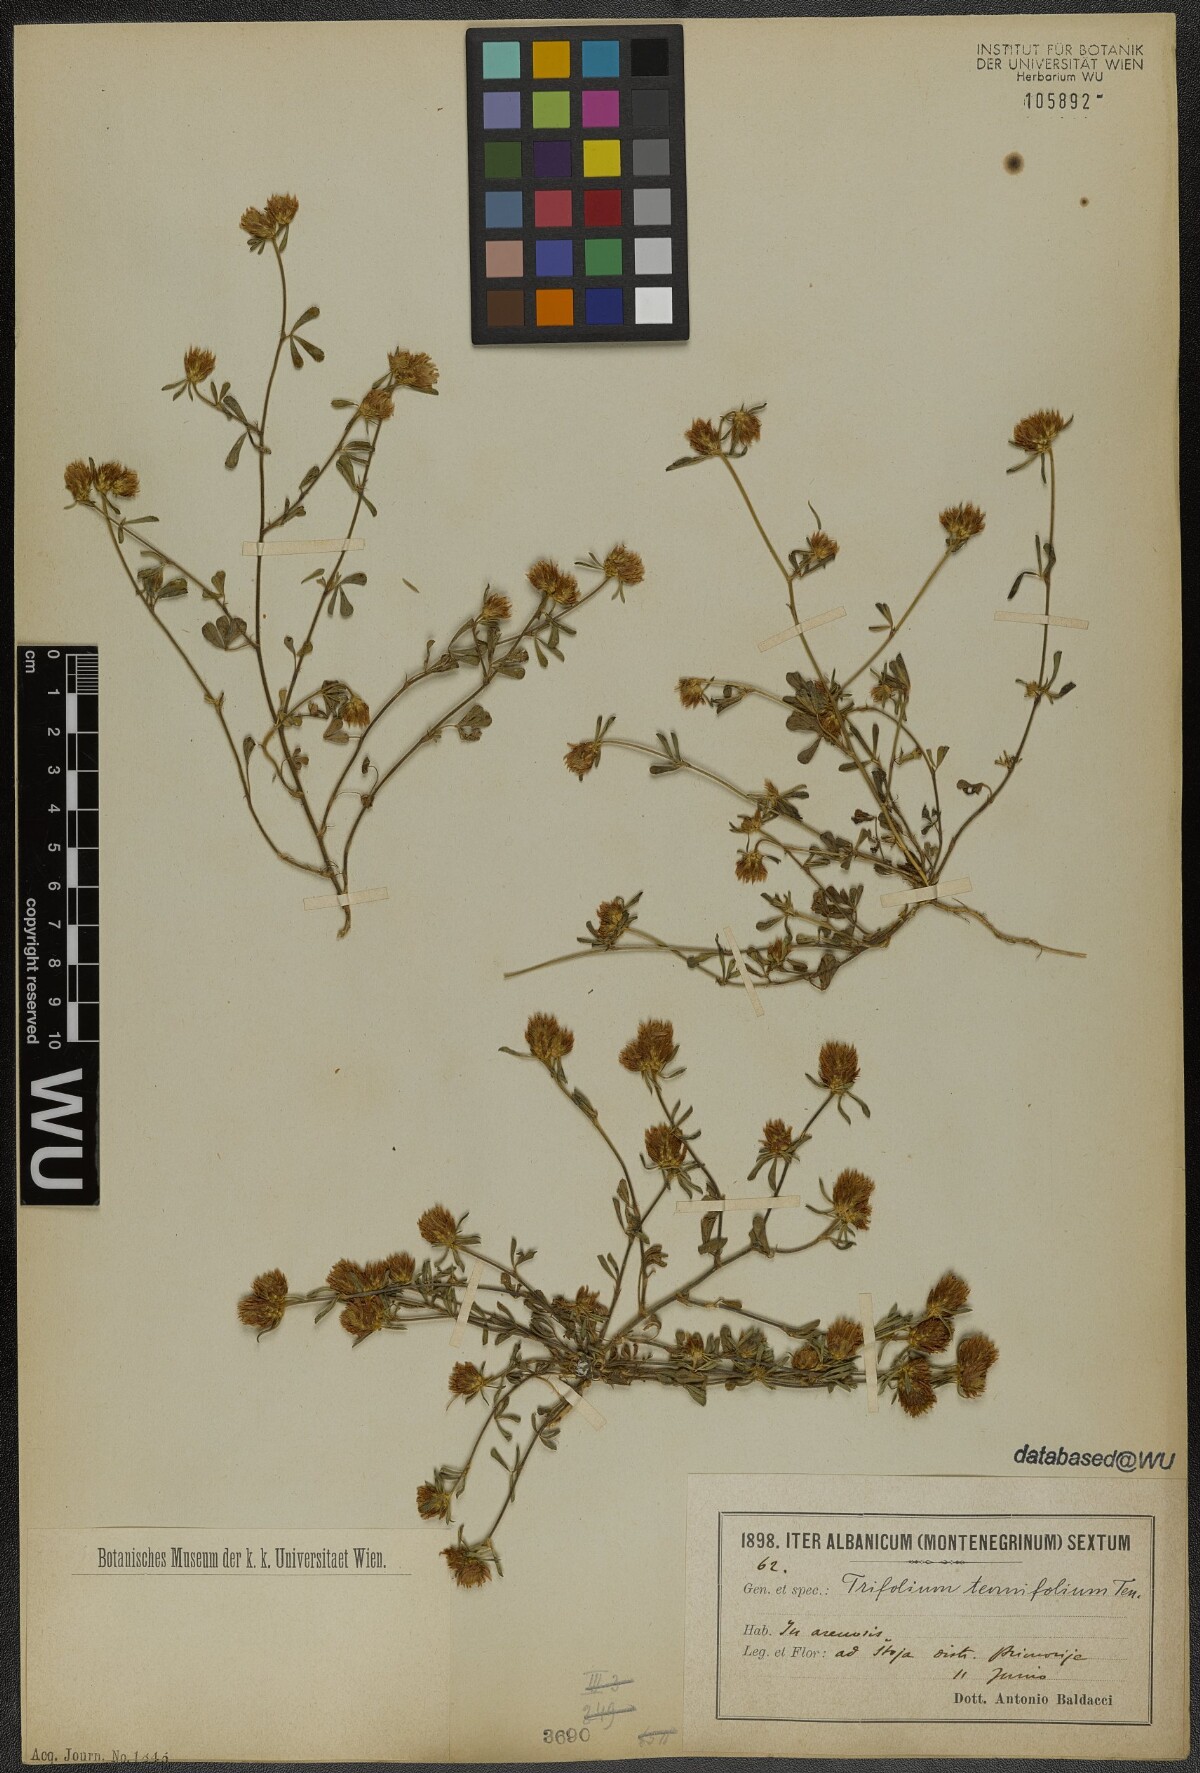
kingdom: Plantae
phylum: Tracheophyta
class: Magnoliopsida
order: Fabales
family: Fabaceae
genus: Trifolium
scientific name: Trifolium tenuifolium
